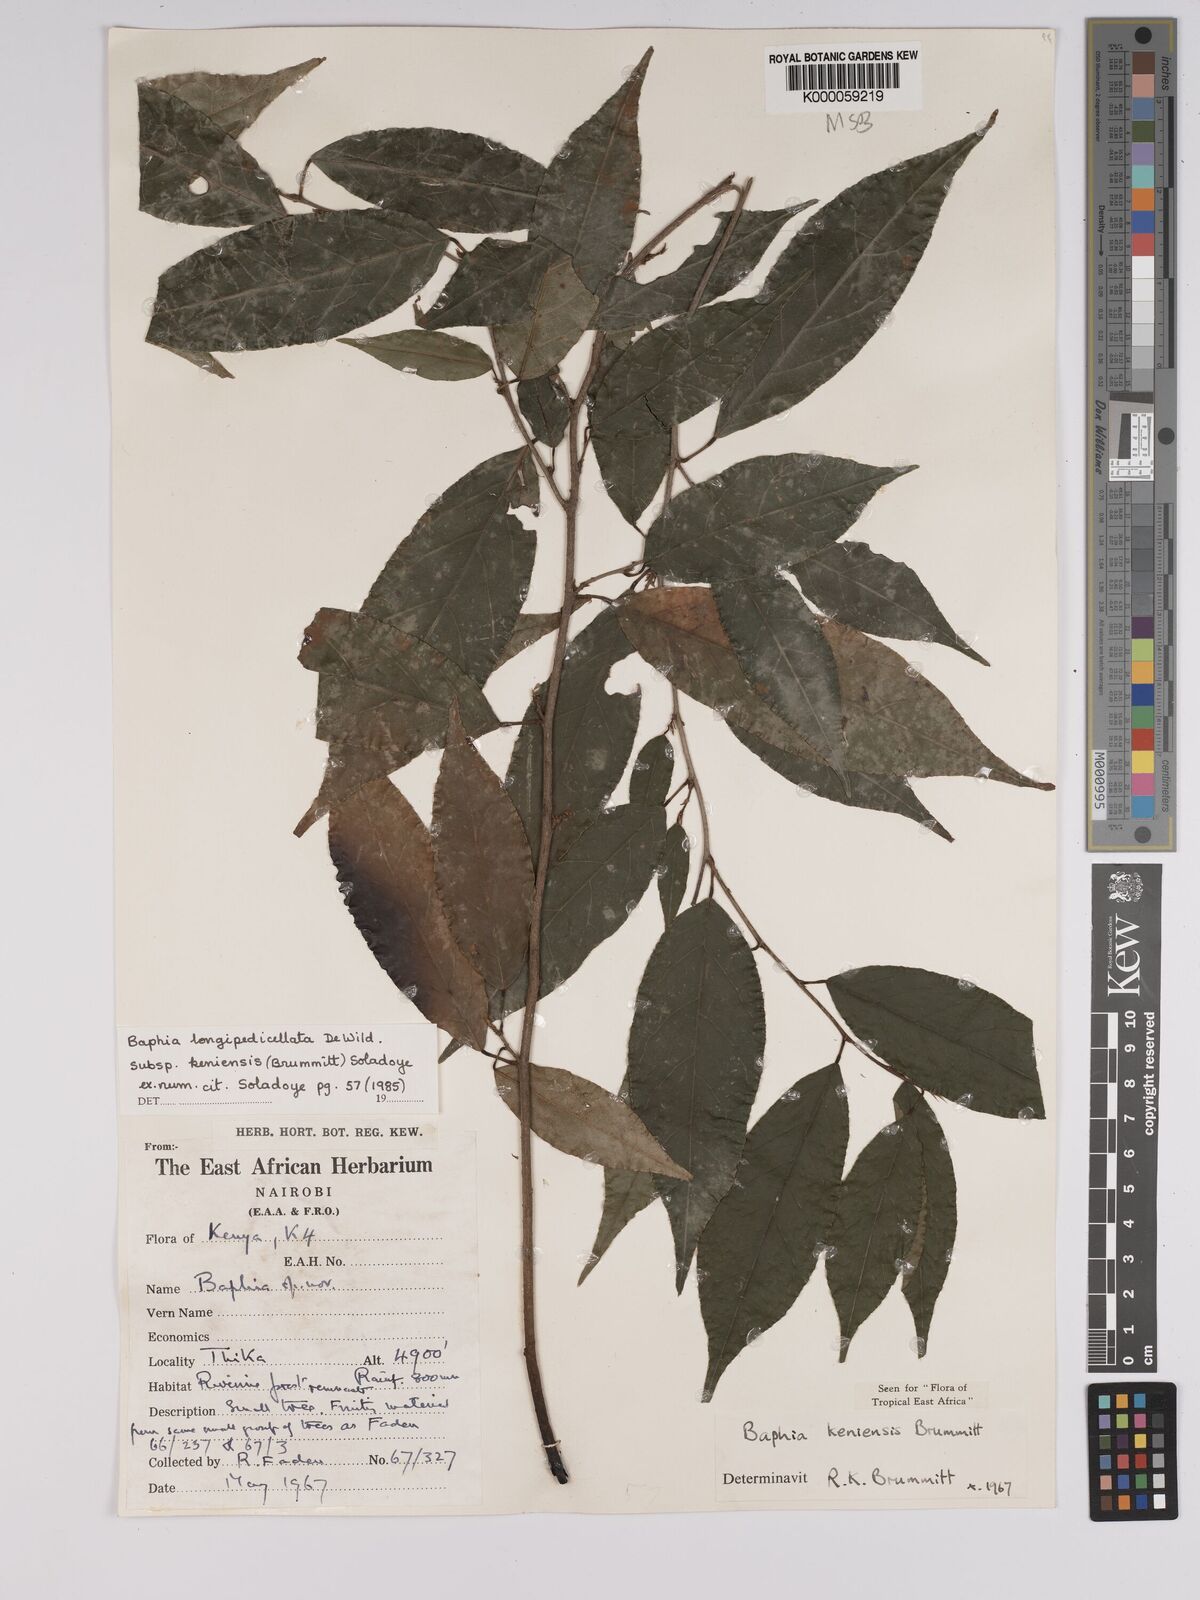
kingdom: Plantae
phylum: Tracheophyta
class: Magnoliopsida
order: Fabales
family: Fabaceae
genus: Baphia
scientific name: Baphia longipedicellata
